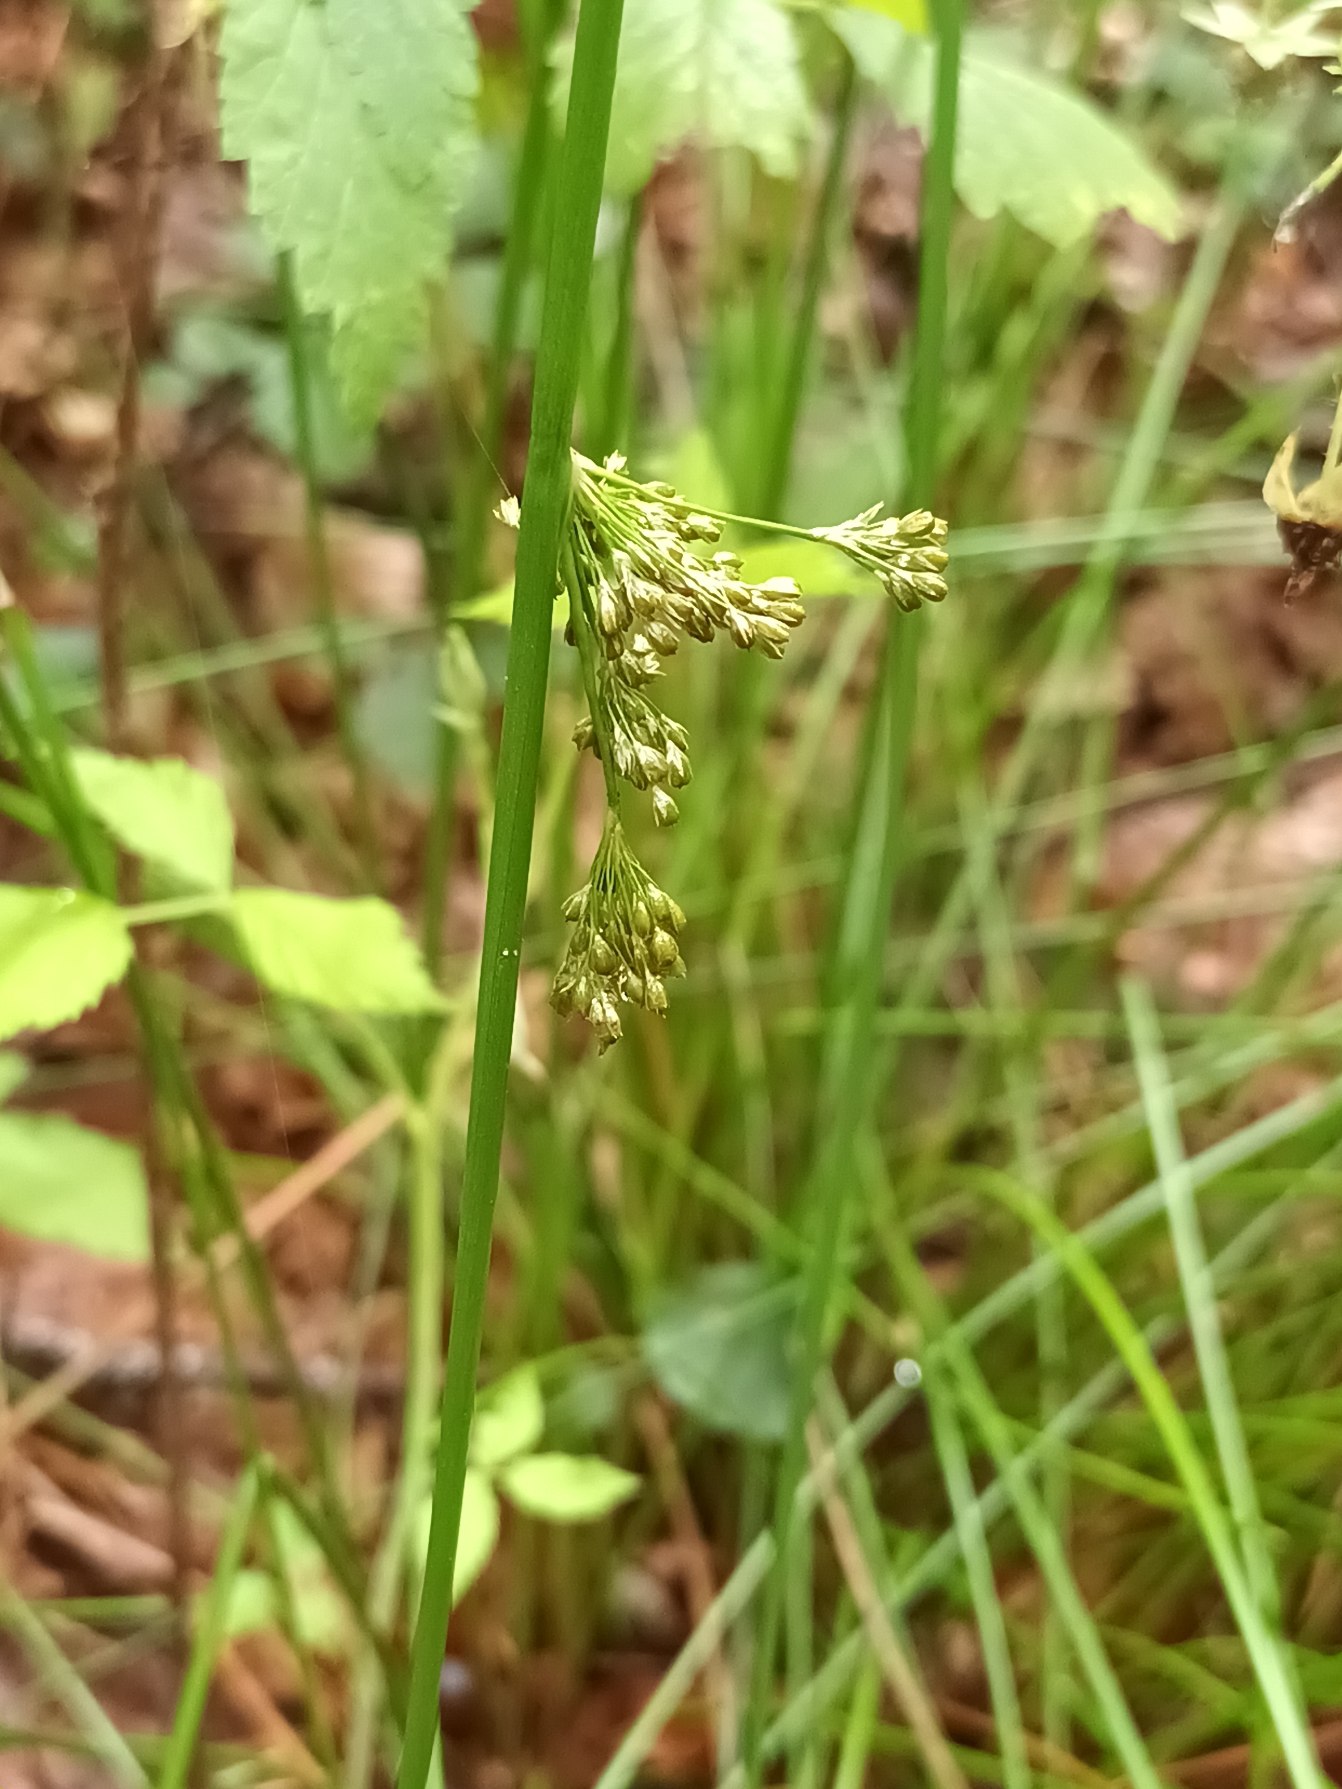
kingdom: Plantae
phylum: Tracheophyta
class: Liliopsida
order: Poales
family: Juncaceae
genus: Juncus
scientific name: Juncus effusus
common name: Lyse-siv
